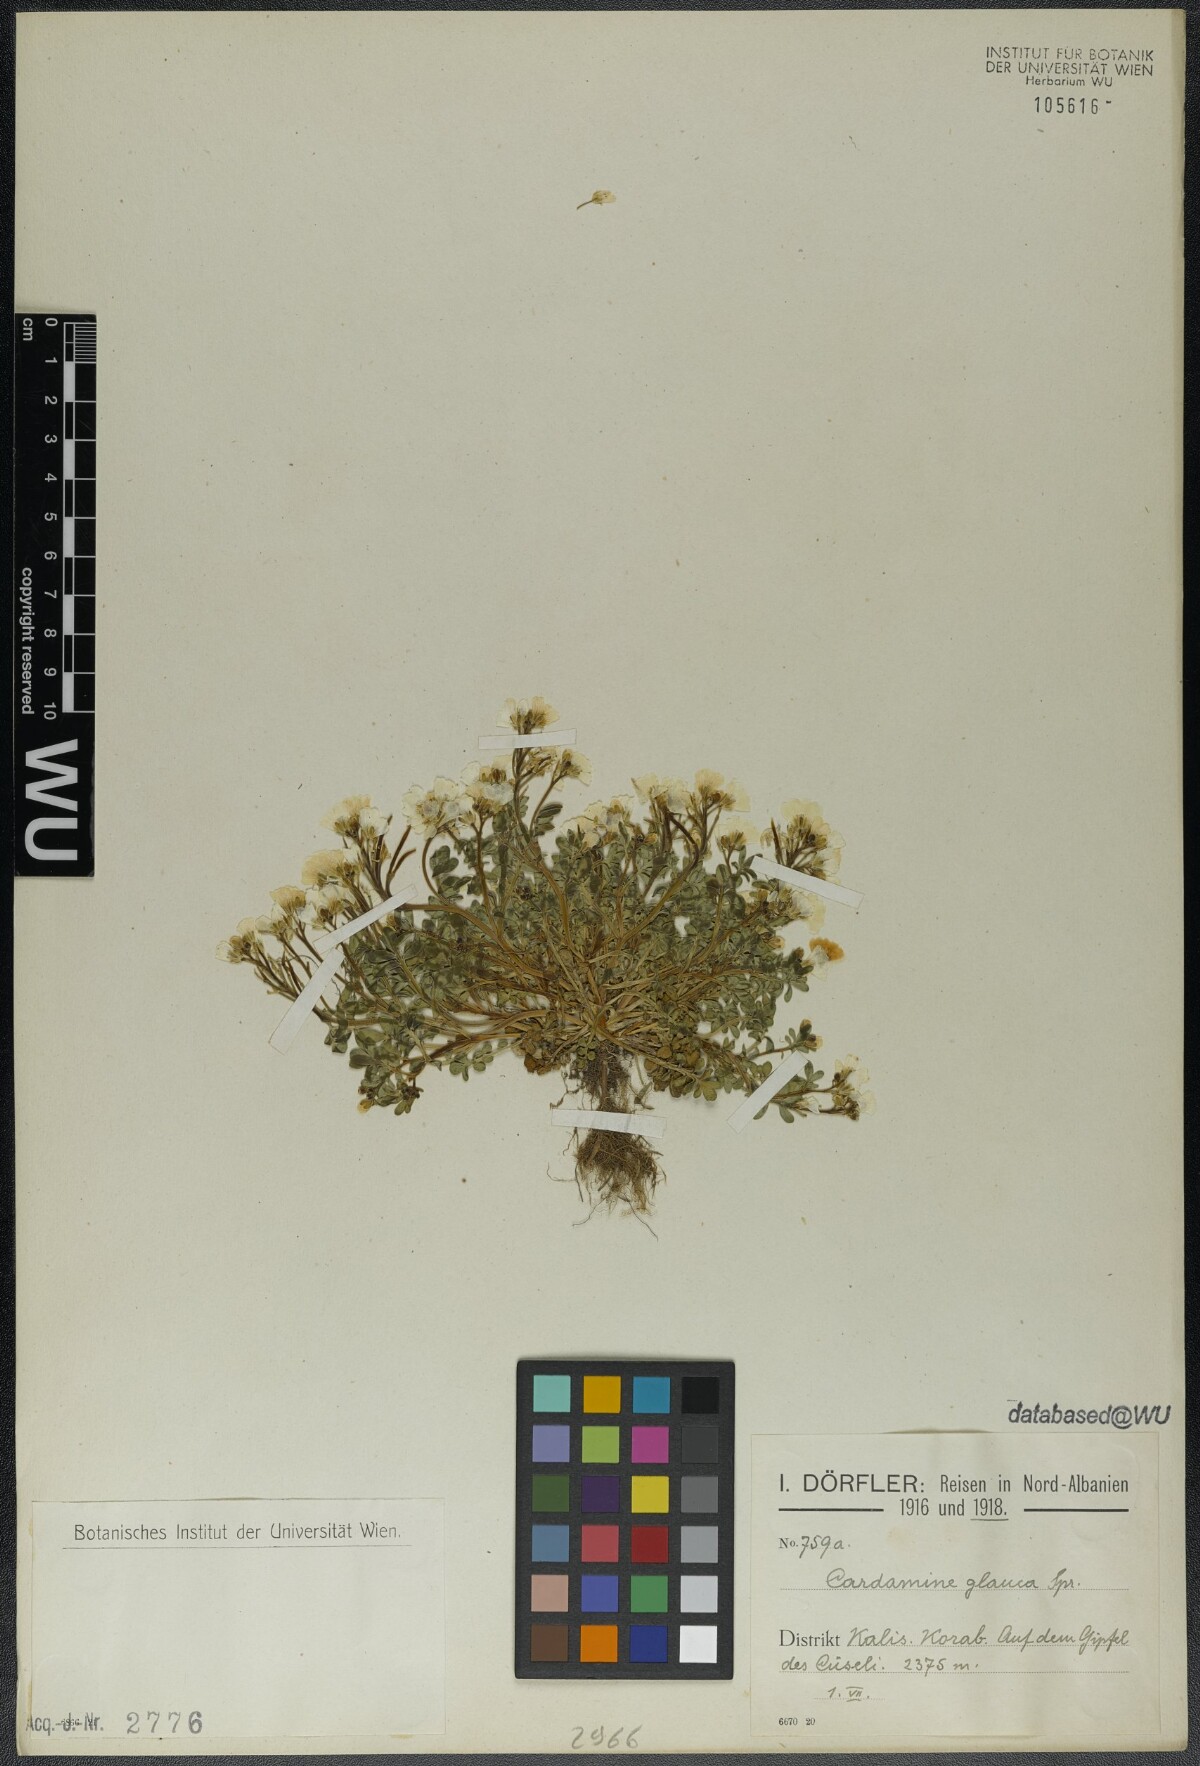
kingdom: Plantae
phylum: Tracheophyta
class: Magnoliopsida
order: Brassicales
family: Brassicaceae
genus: Cardamine
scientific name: Cardamine glauca
